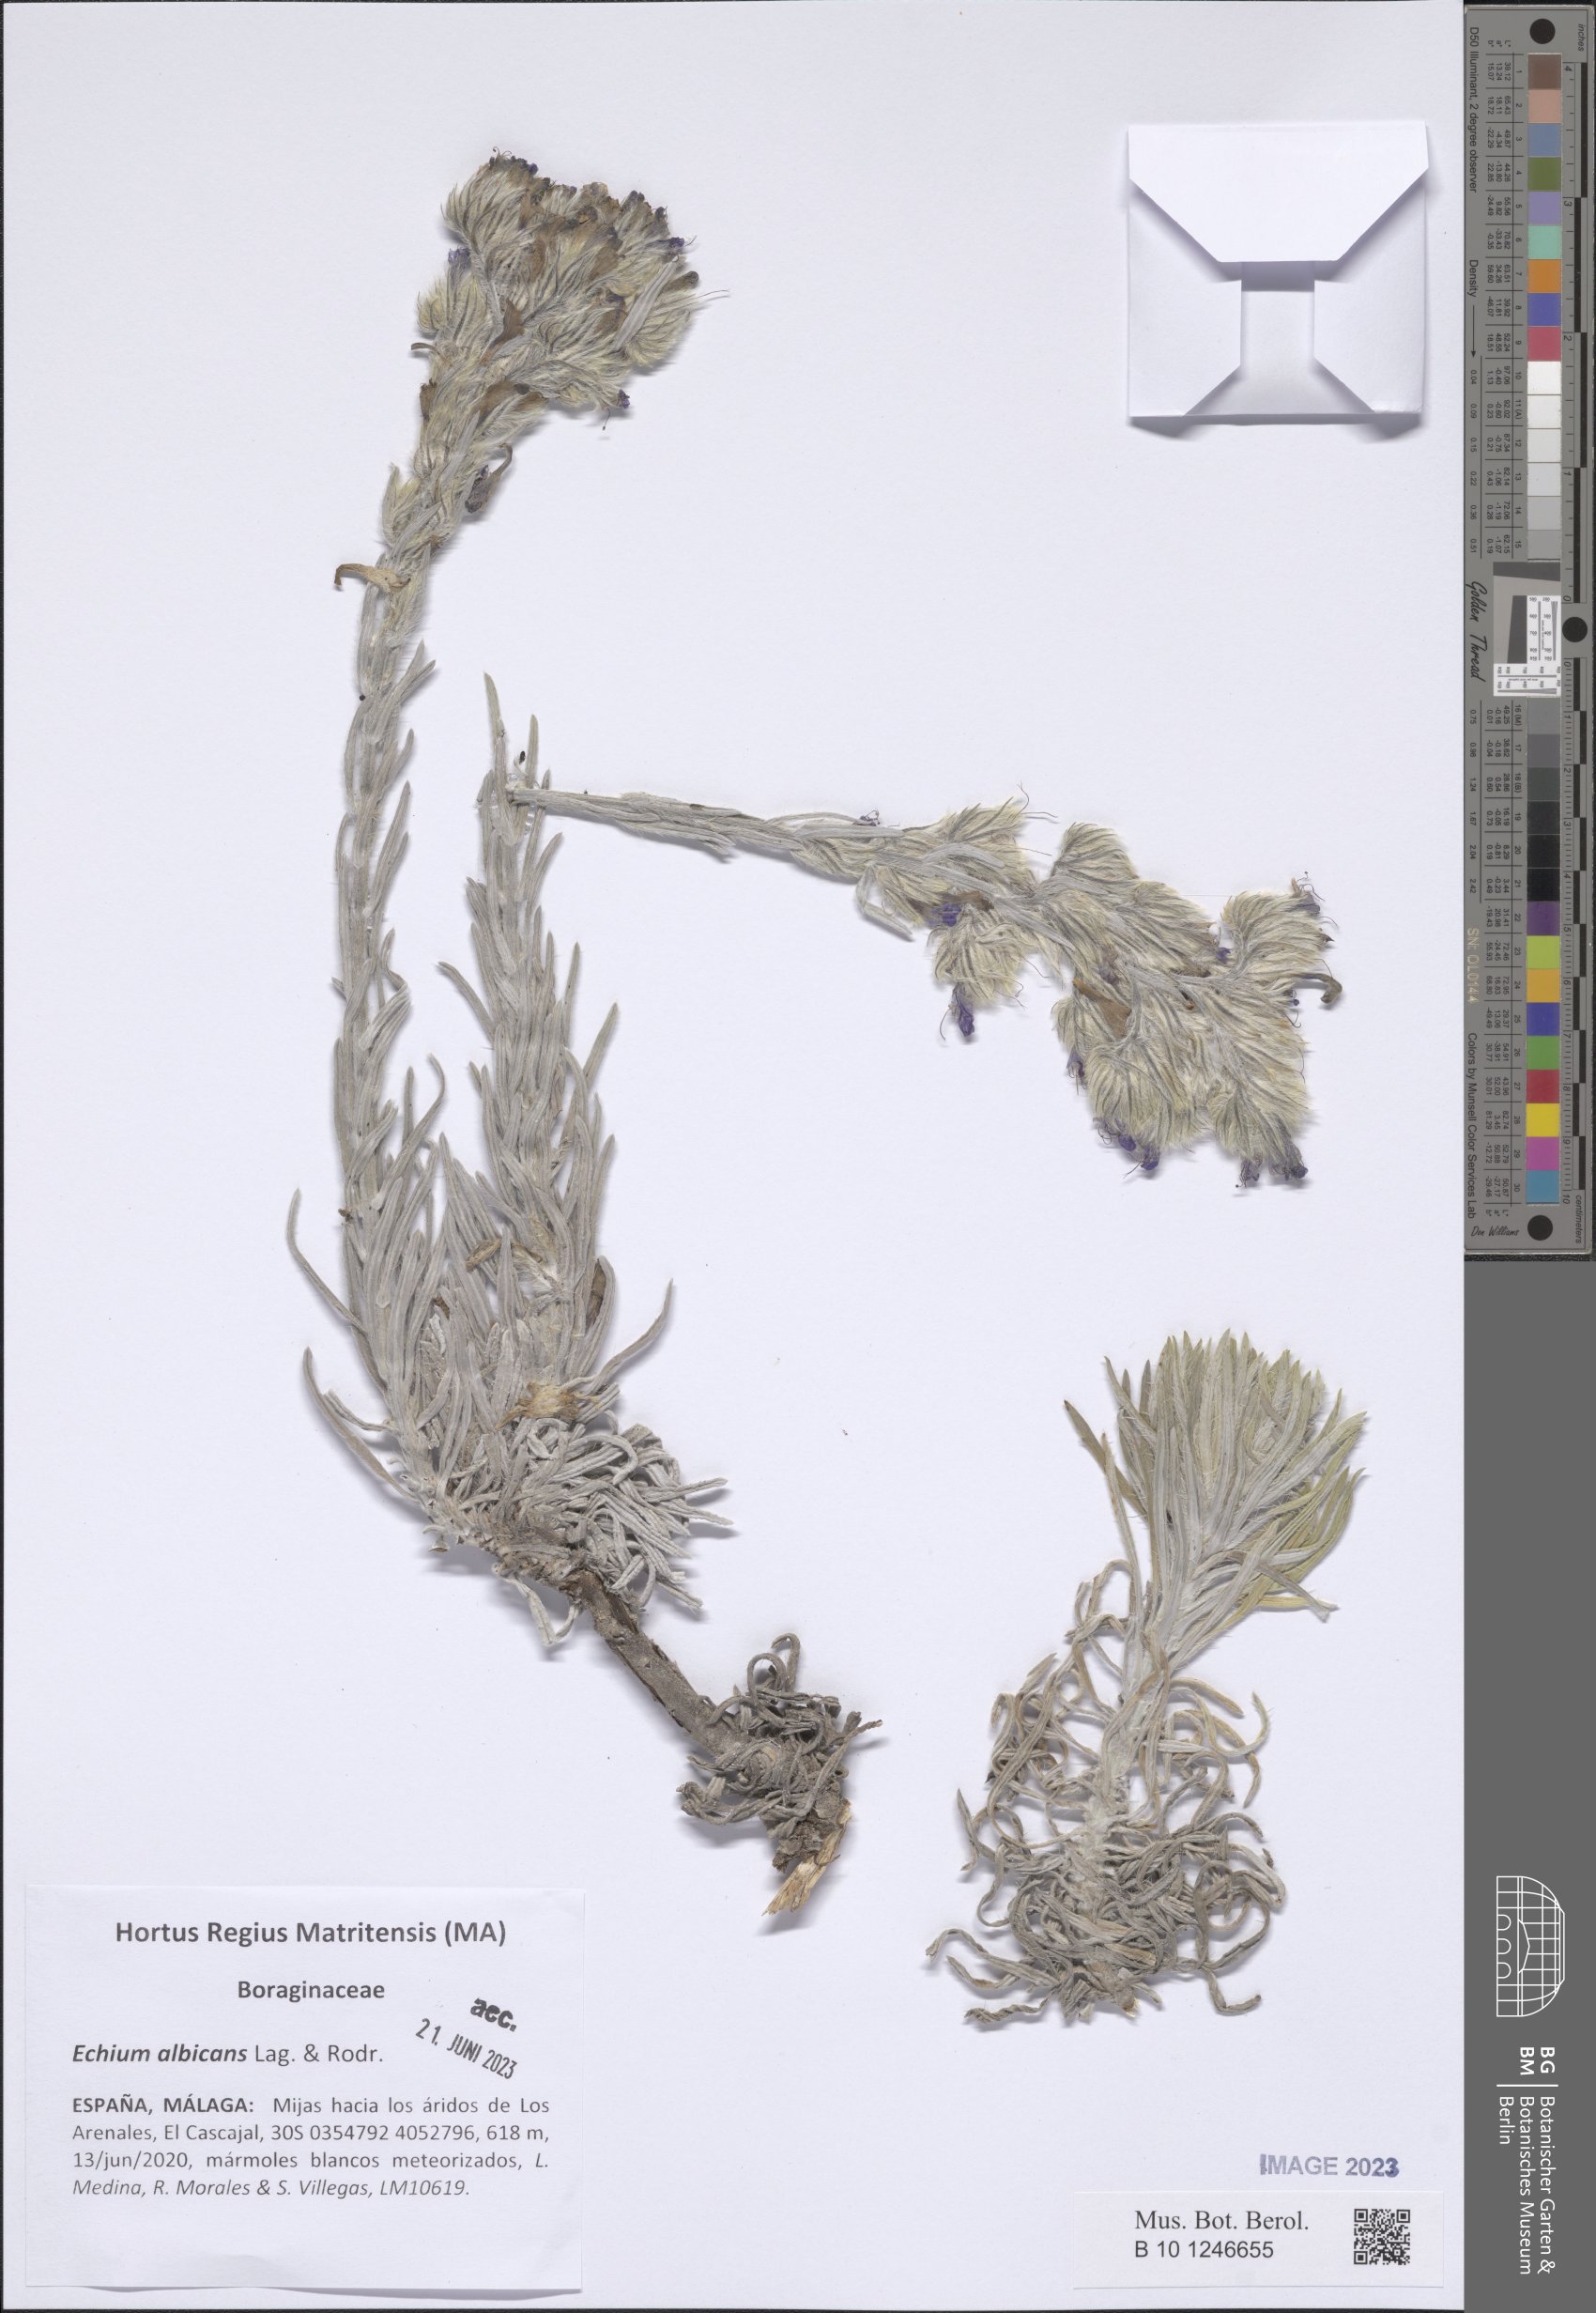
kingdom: Plantae
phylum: Tracheophyta
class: Magnoliopsida
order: Boraginales
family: Boraginaceae
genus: Echium
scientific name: Echium albicans
